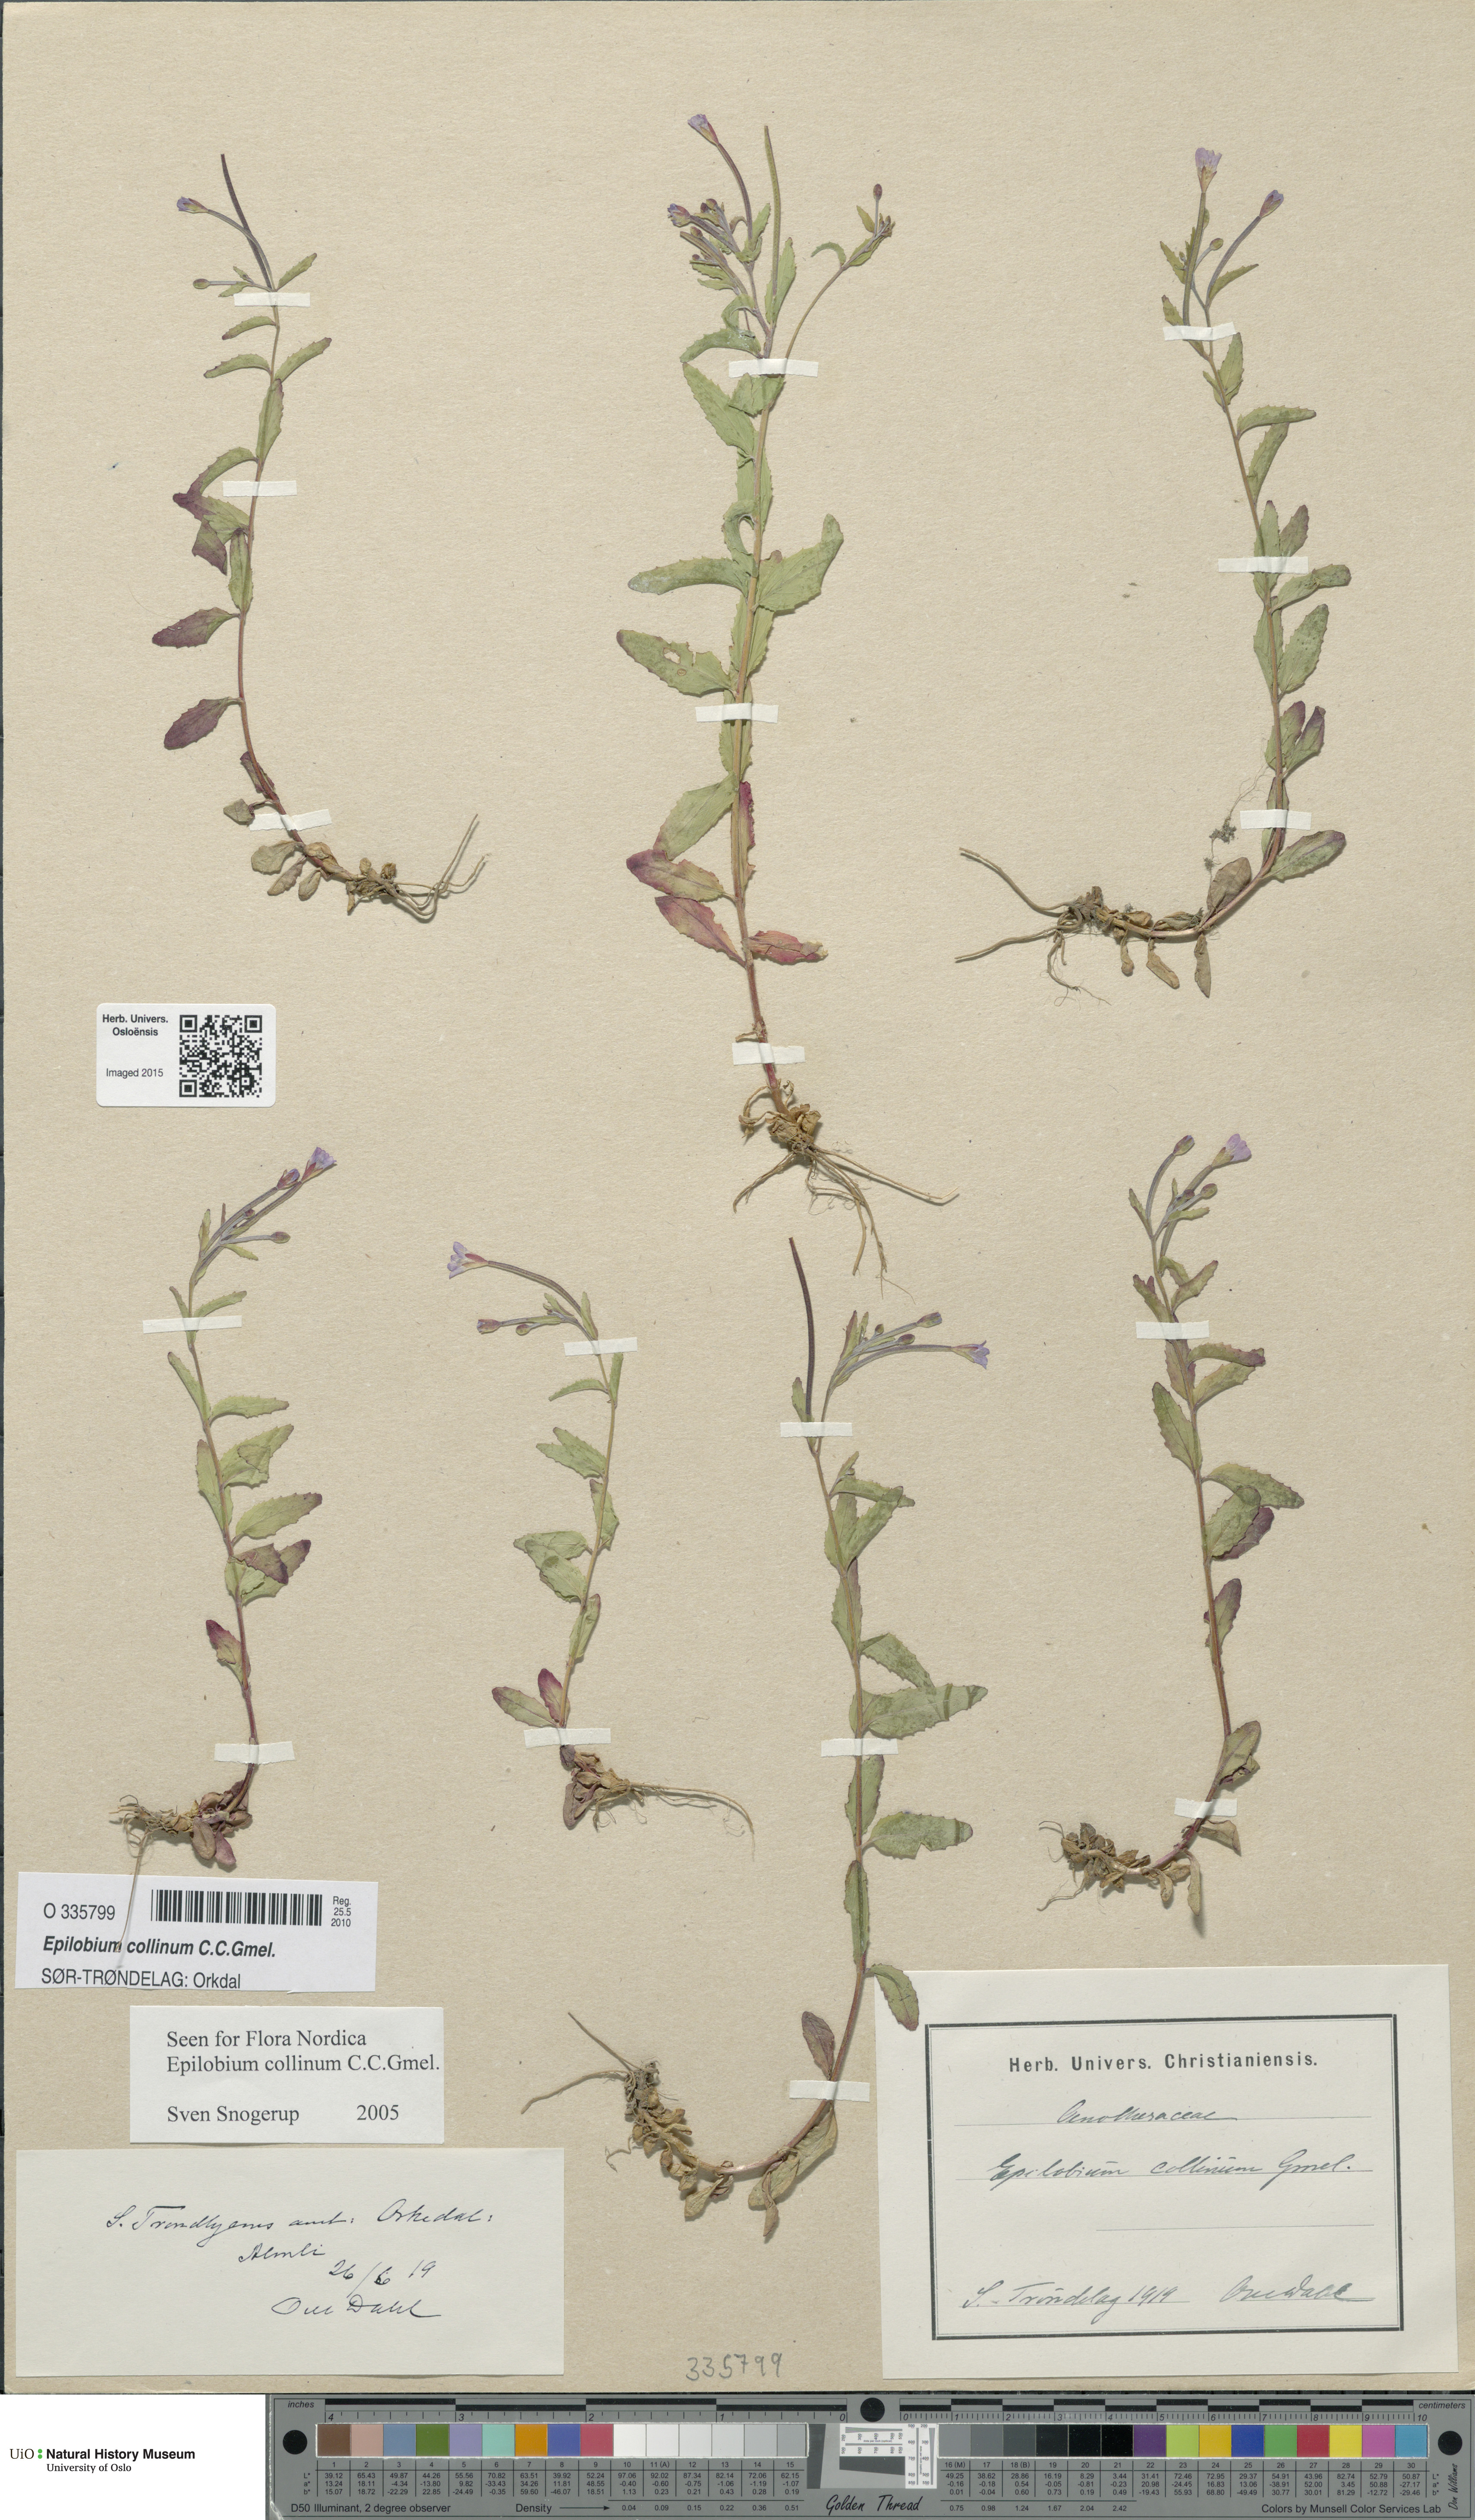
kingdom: Plantae
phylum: Tracheophyta
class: Magnoliopsida
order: Myrtales
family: Onagraceae
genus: Epilobium
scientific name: Epilobium collinum
